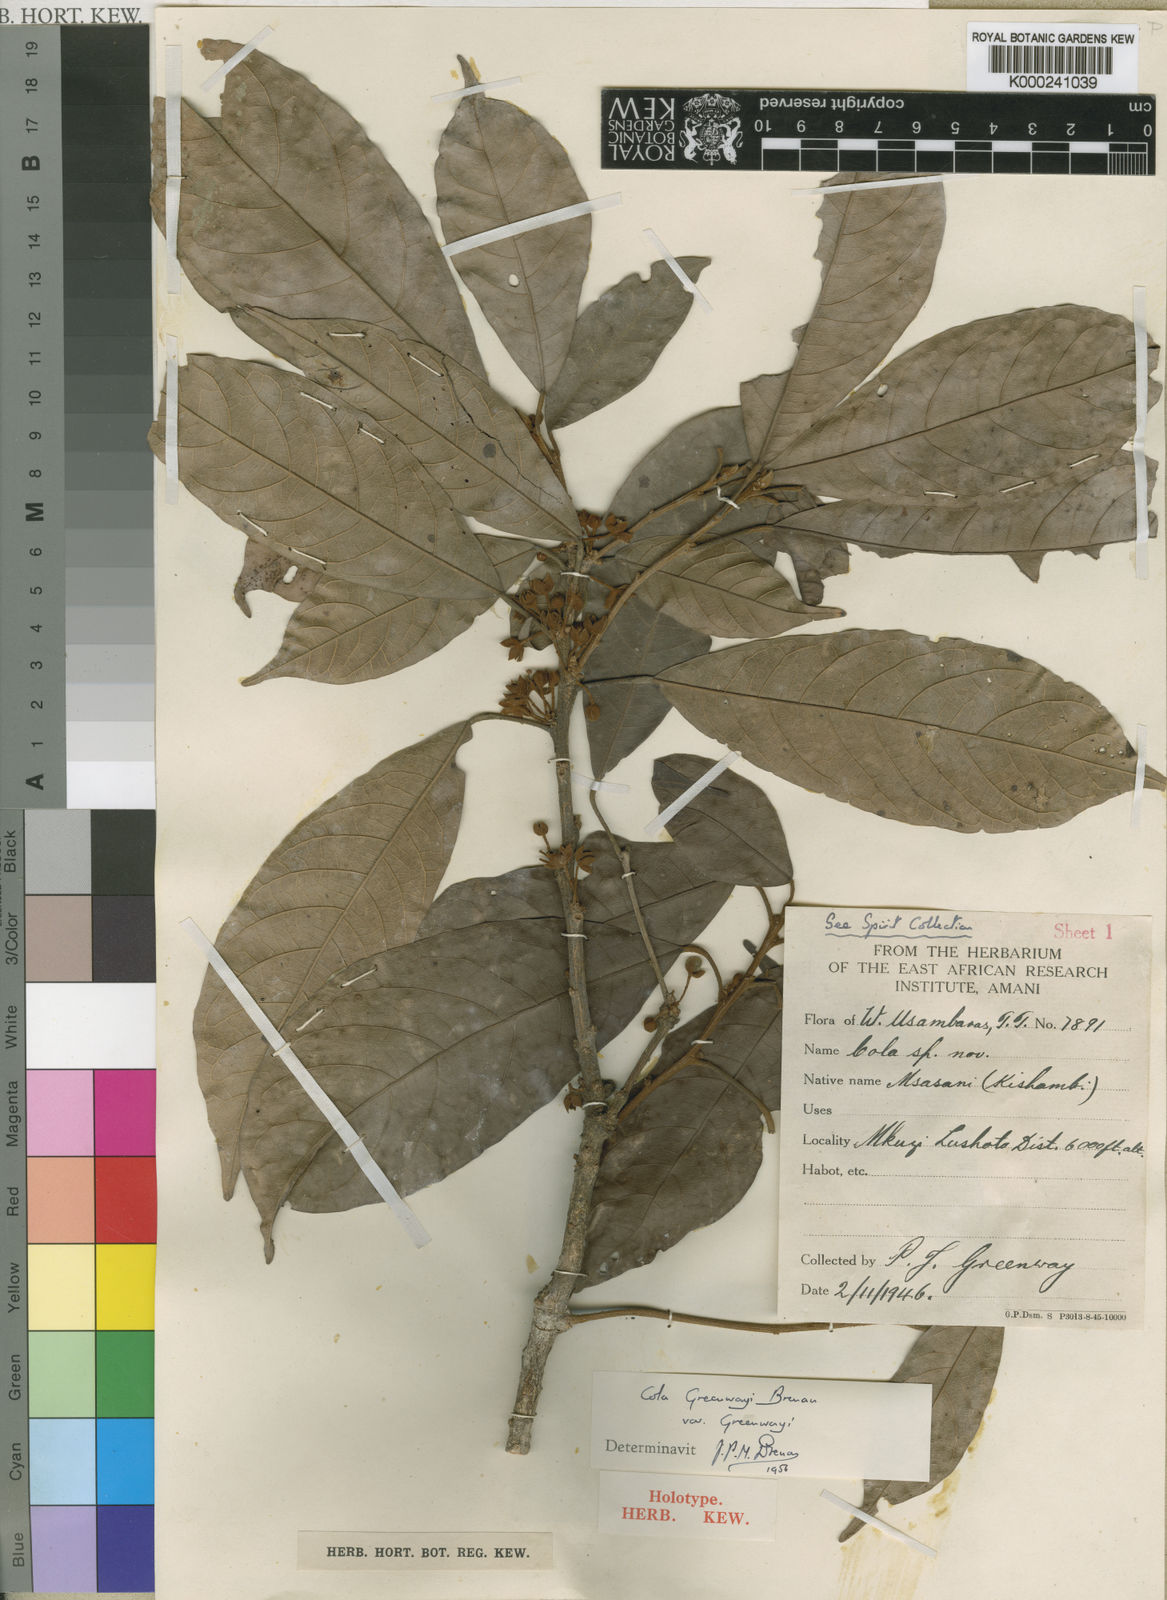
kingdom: Plantae
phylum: Tracheophyta
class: Magnoliopsida
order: Malvales
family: Malvaceae
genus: Cola
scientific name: Cola greenwayi
